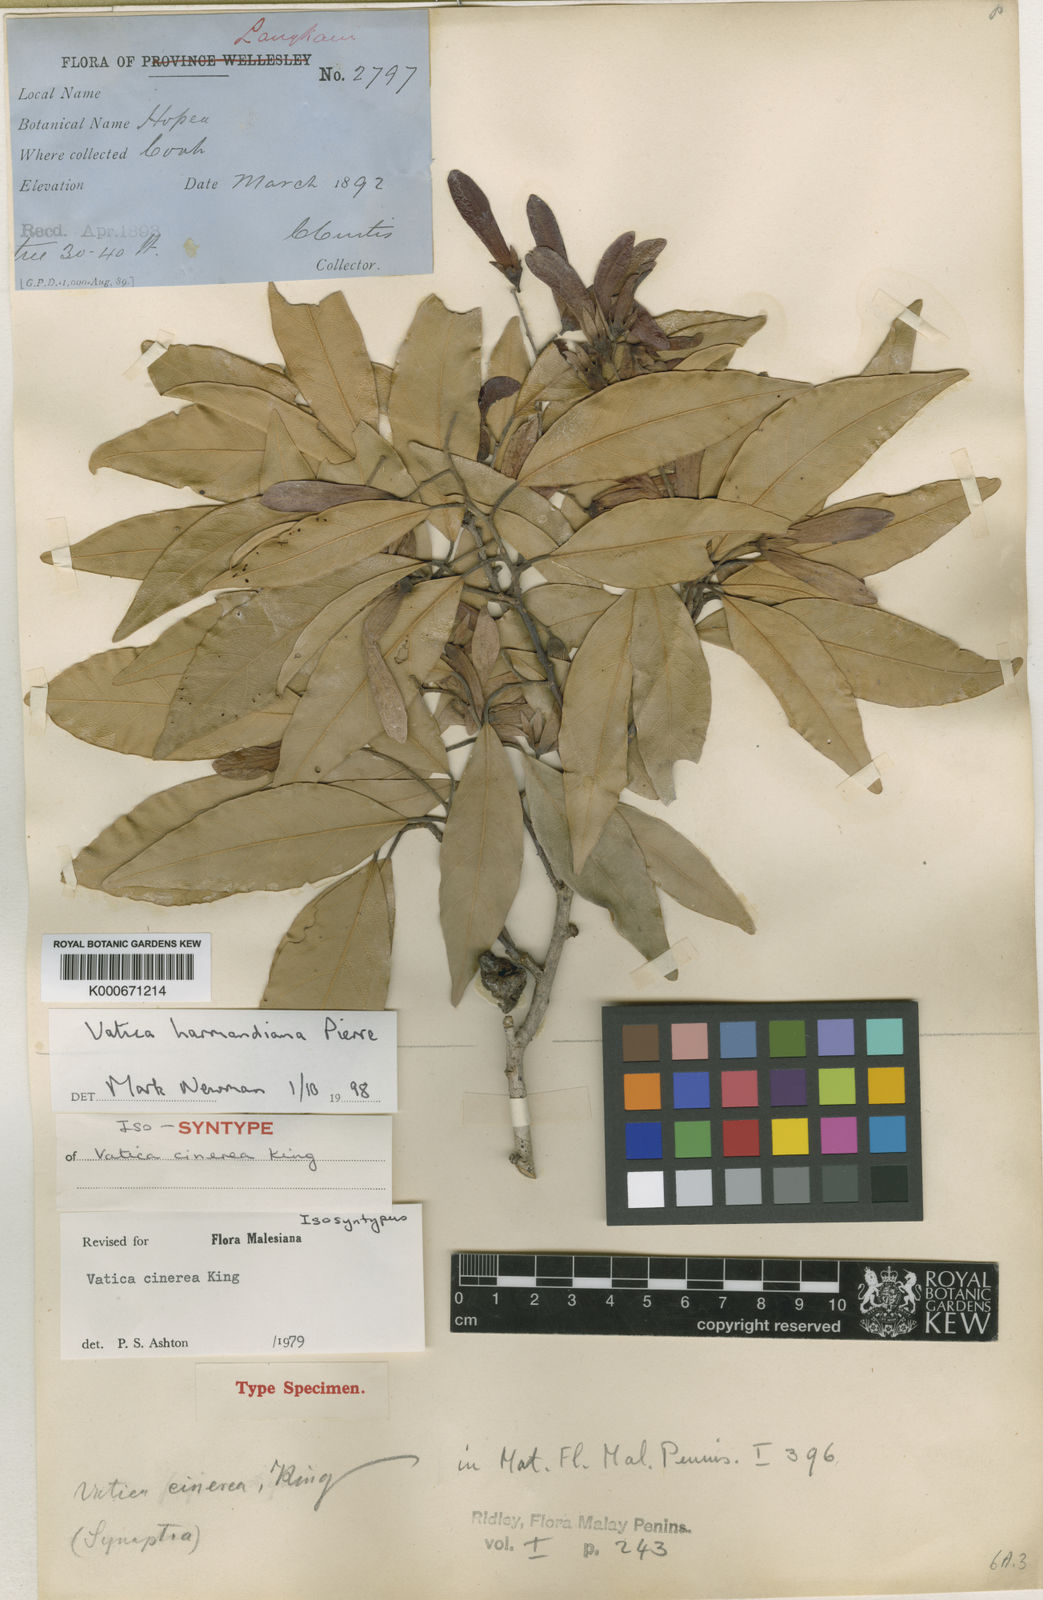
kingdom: Plantae
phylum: Tracheophyta
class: Magnoliopsida
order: Malvales
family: Dipterocarpaceae
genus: Vatica
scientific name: Vatica harmandiana
